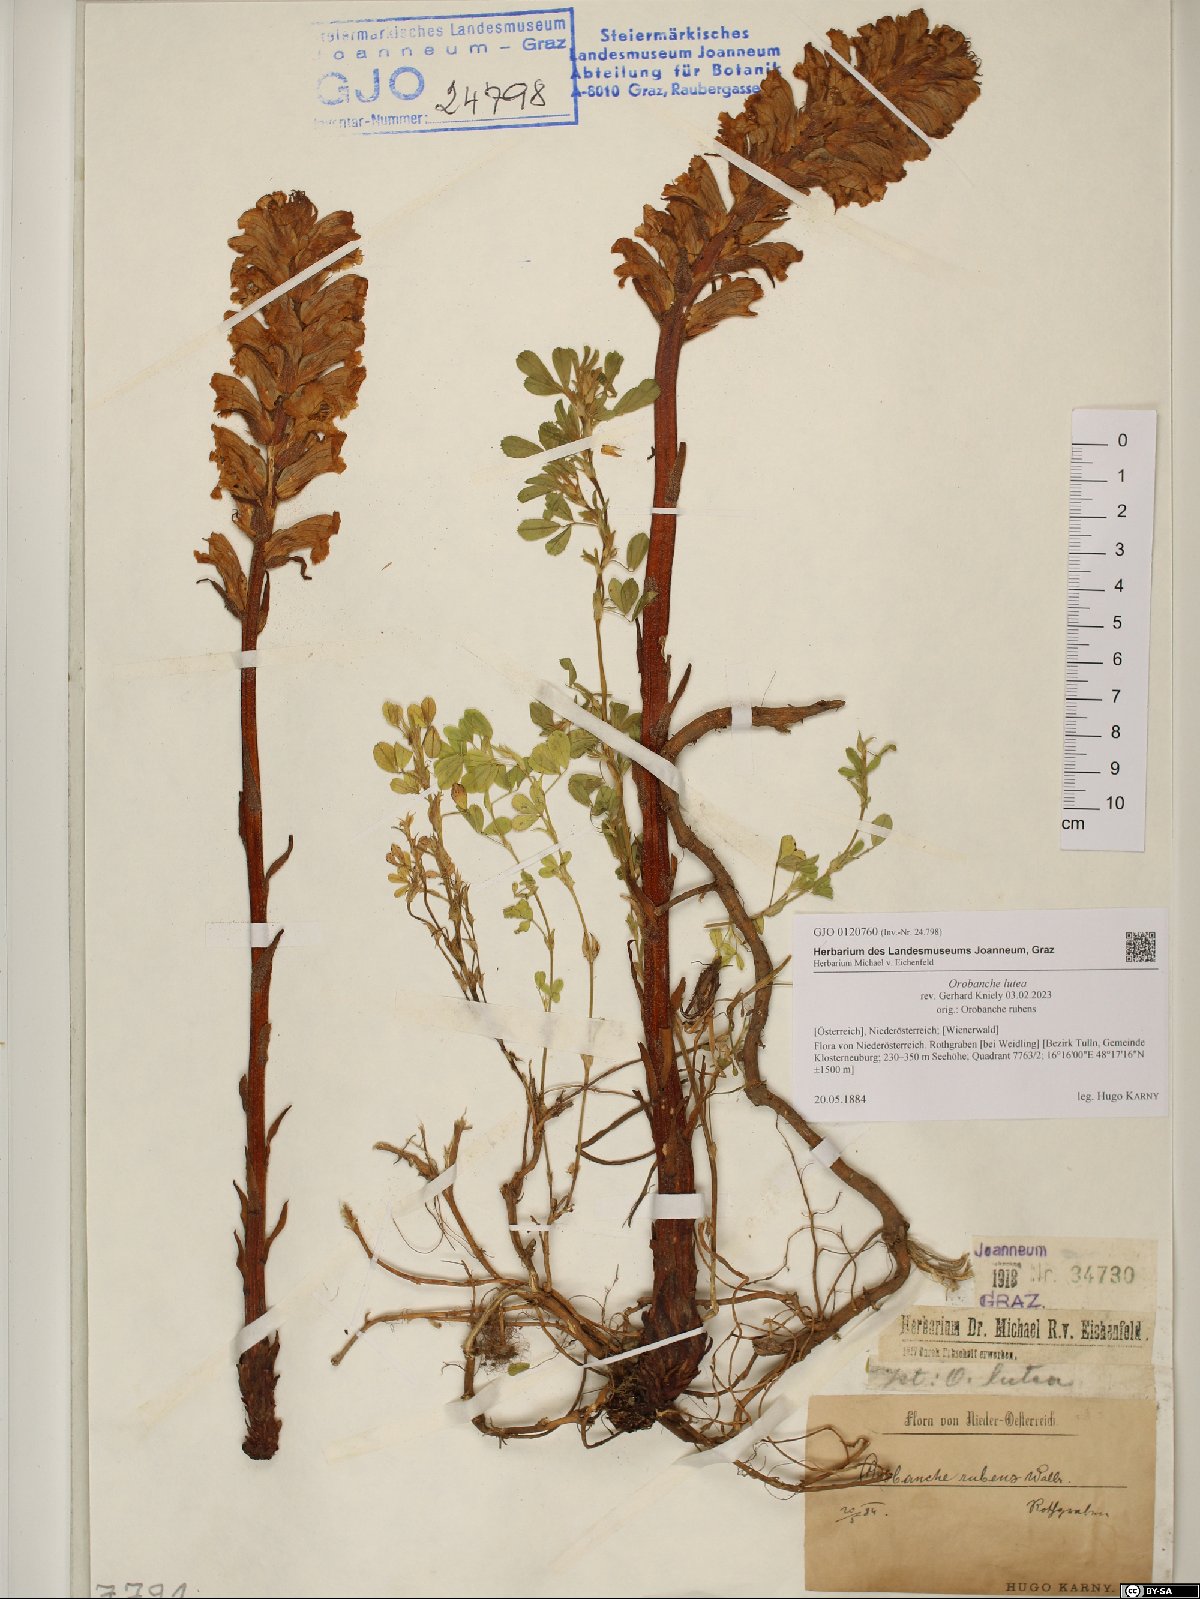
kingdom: Plantae
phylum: Tracheophyta
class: Magnoliopsida
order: Lamiales
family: Orobanchaceae
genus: Orobanche
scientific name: Orobanche lutea
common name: Yellow broomrape
